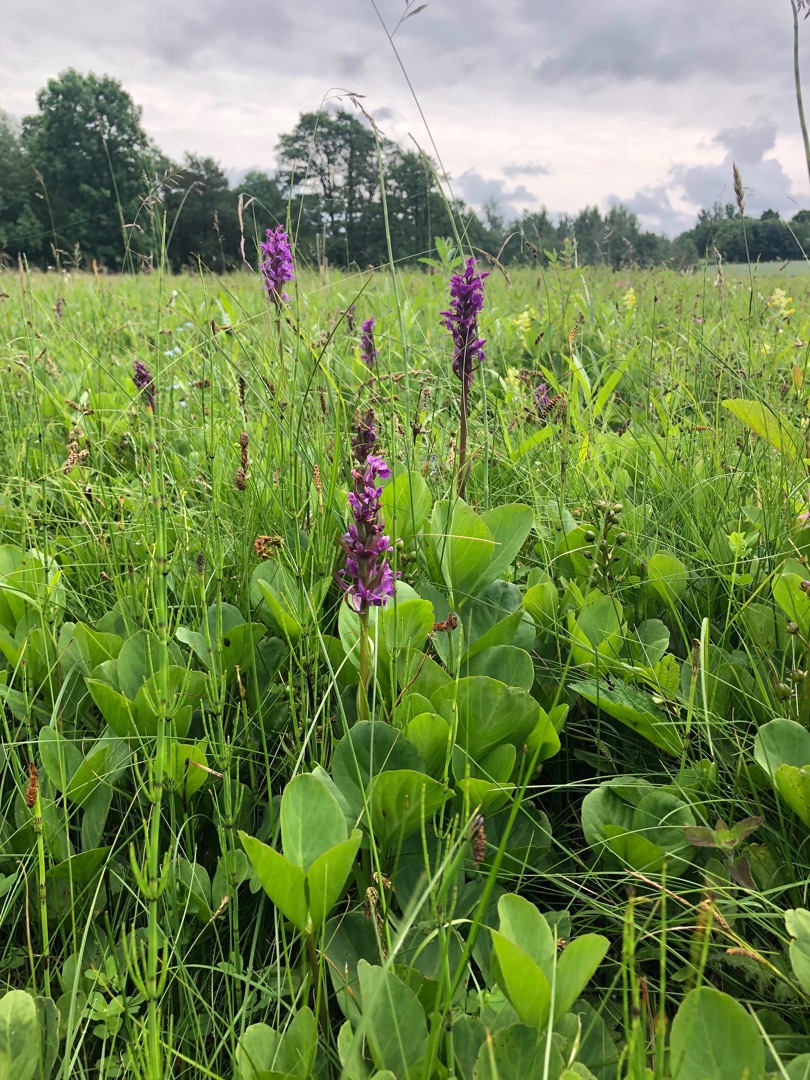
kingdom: Plantae
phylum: Tracheophyta
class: Liliopsida
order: Asparagales
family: Orchidaceae
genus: Dactylorhiza
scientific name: Dactylorhiza majalis
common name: Maj-gøgeurt
